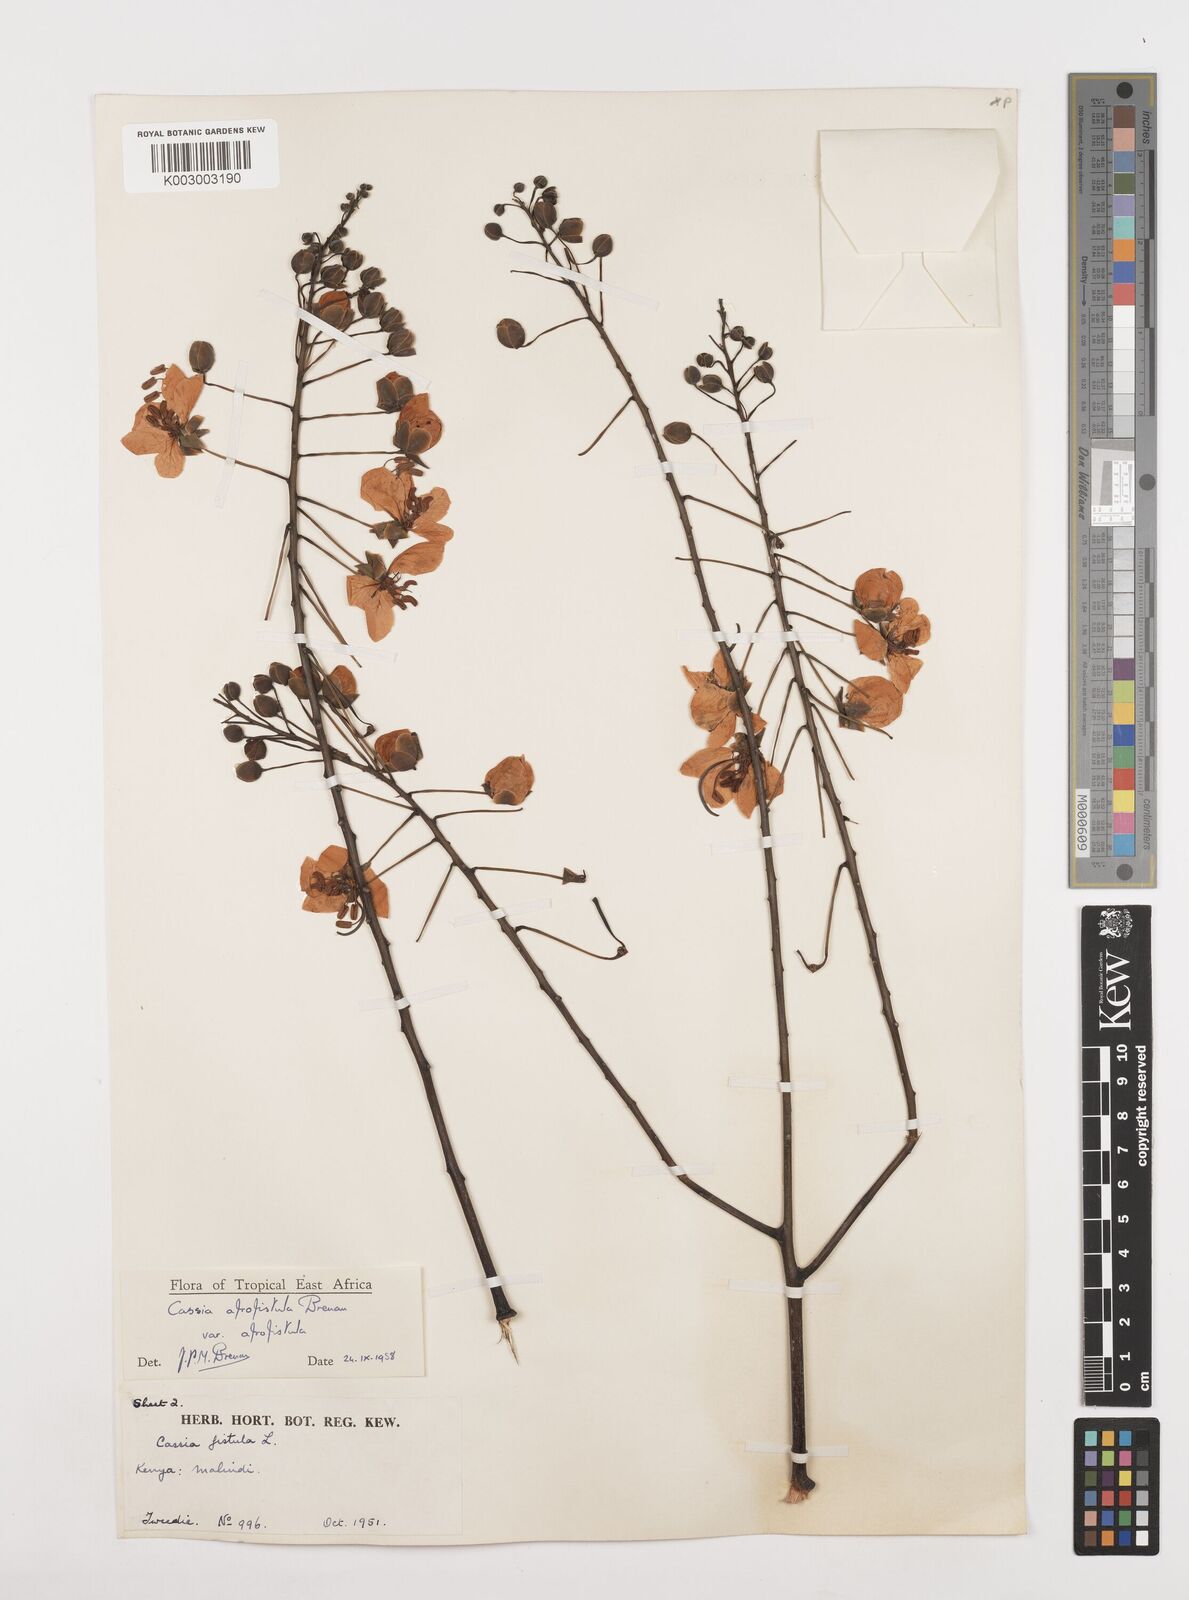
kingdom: Plantae
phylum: Tracheophyta
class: Magnoliopsida
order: Fabales
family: Fabaceae
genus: Cassia
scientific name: Cassia afrofistula
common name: Kenyan shower
